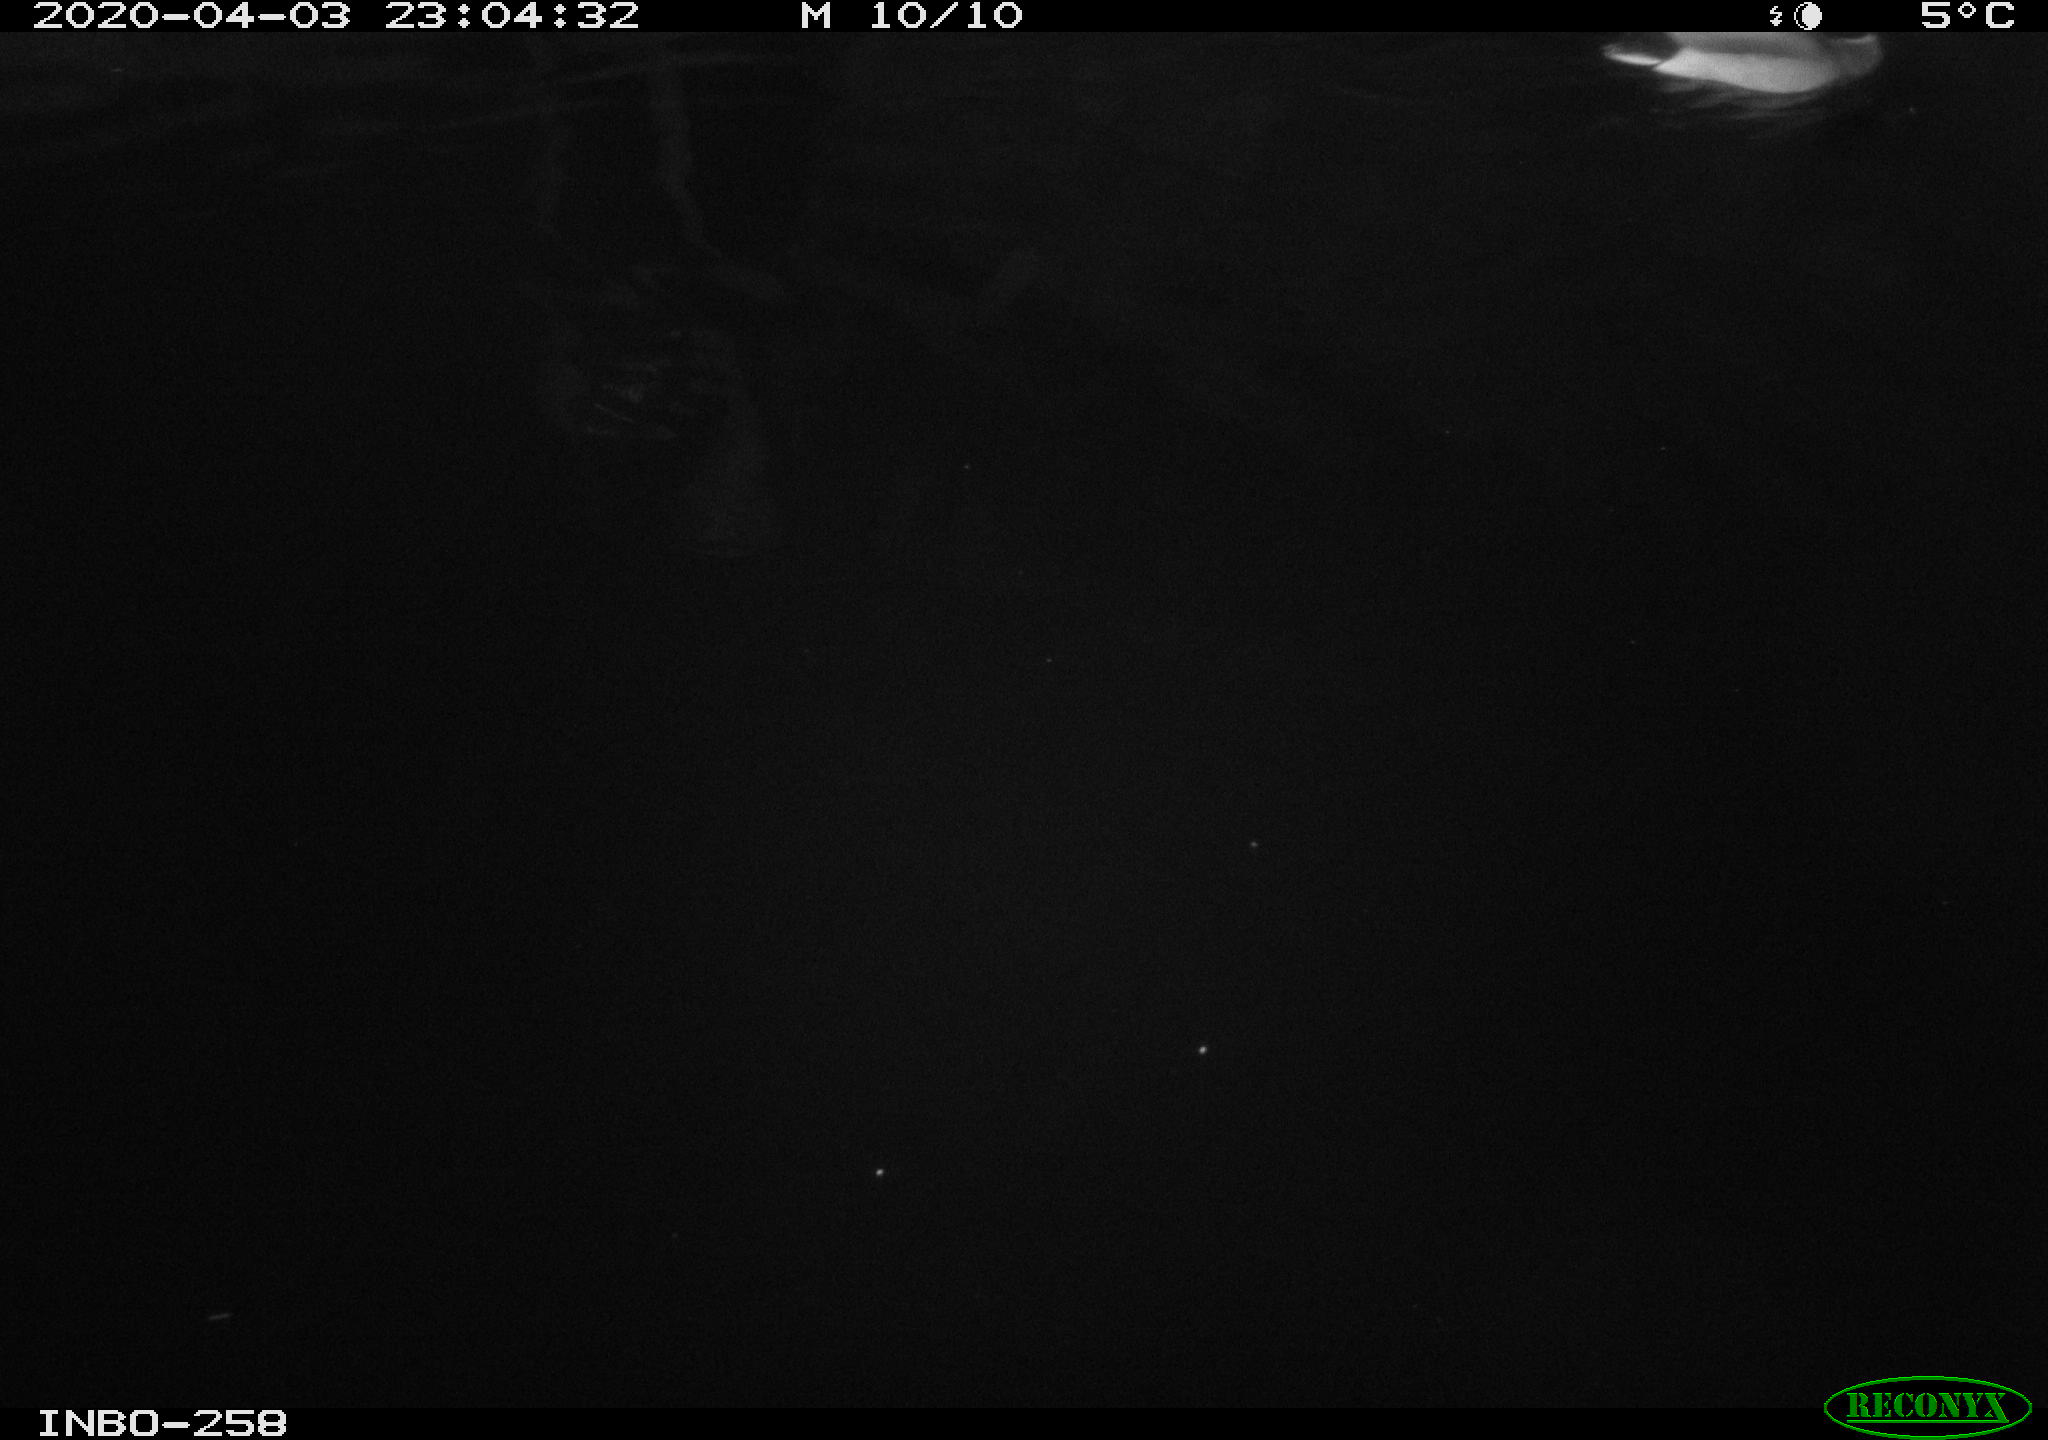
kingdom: Animalia
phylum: Chordata
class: Aves
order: Anseriformes
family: Anatidae
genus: Anas
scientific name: Anas platyrhynchos
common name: Mallard
